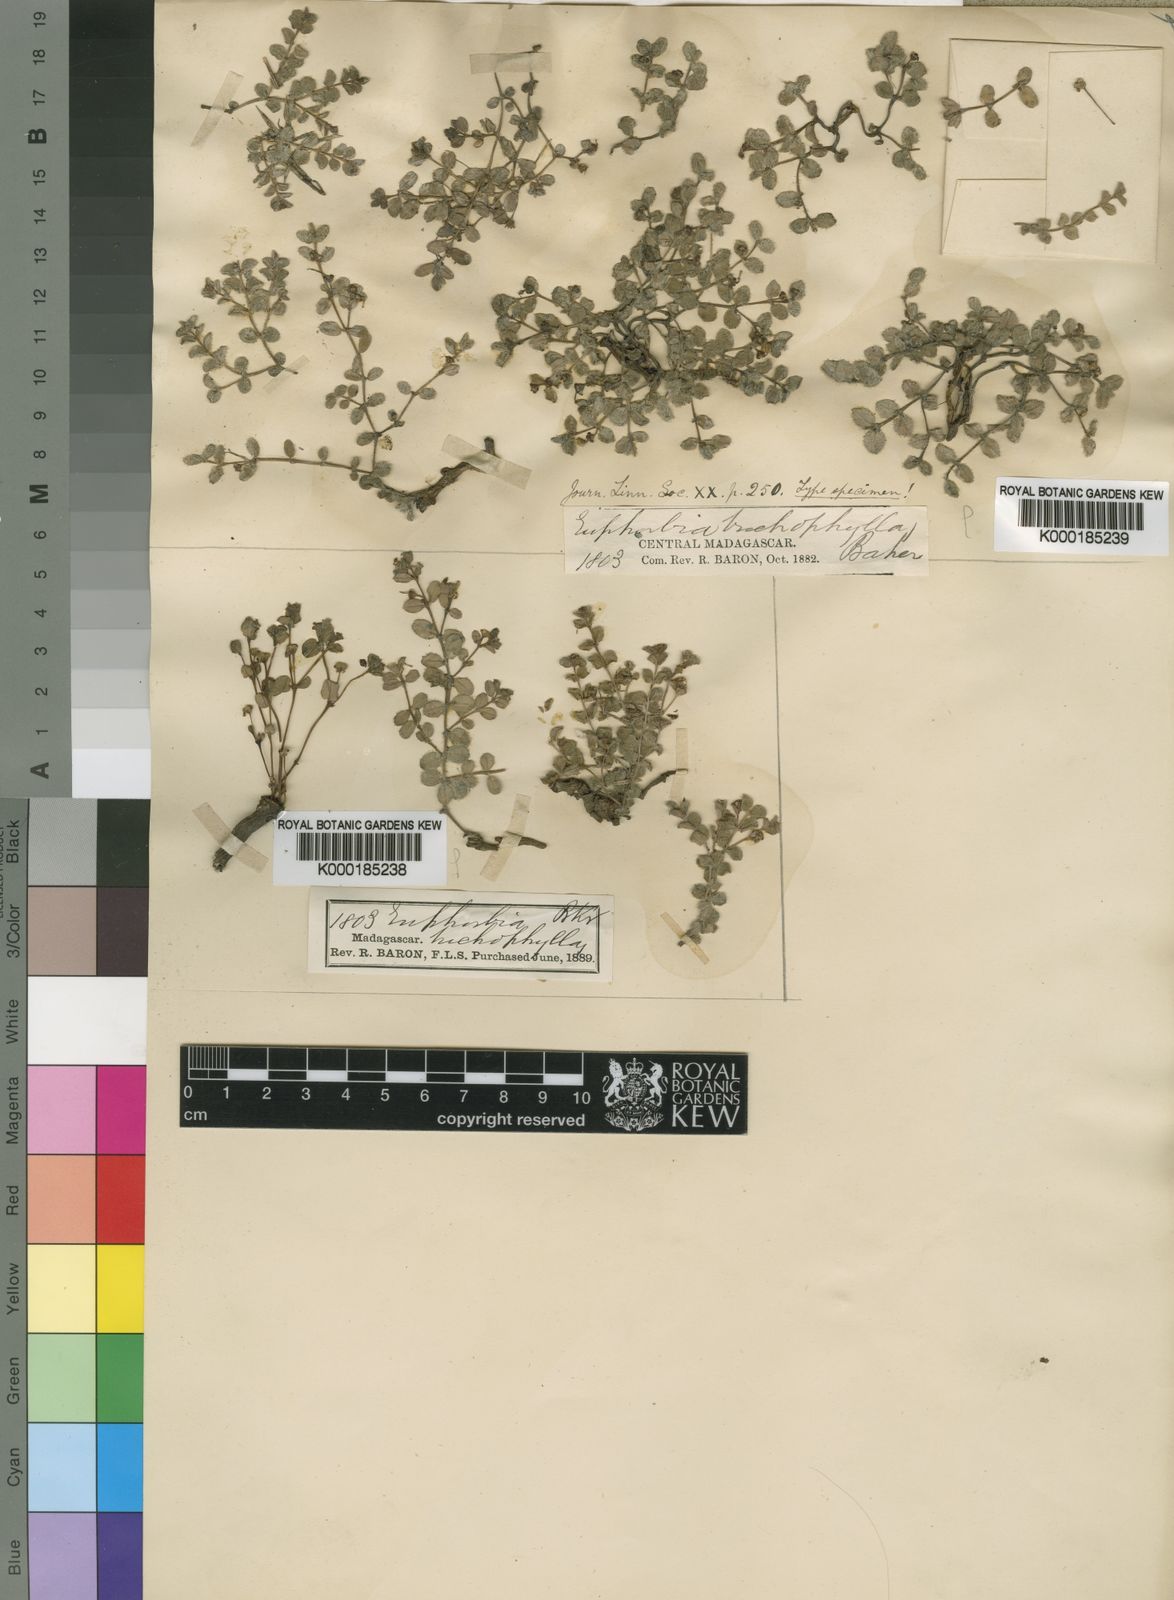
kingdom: Plantae
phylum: Tracheophyta
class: Magnoliopsida
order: Malpighiales
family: Euphorbiaceae
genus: Euphorbia
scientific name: Euphorbia trichophylla
